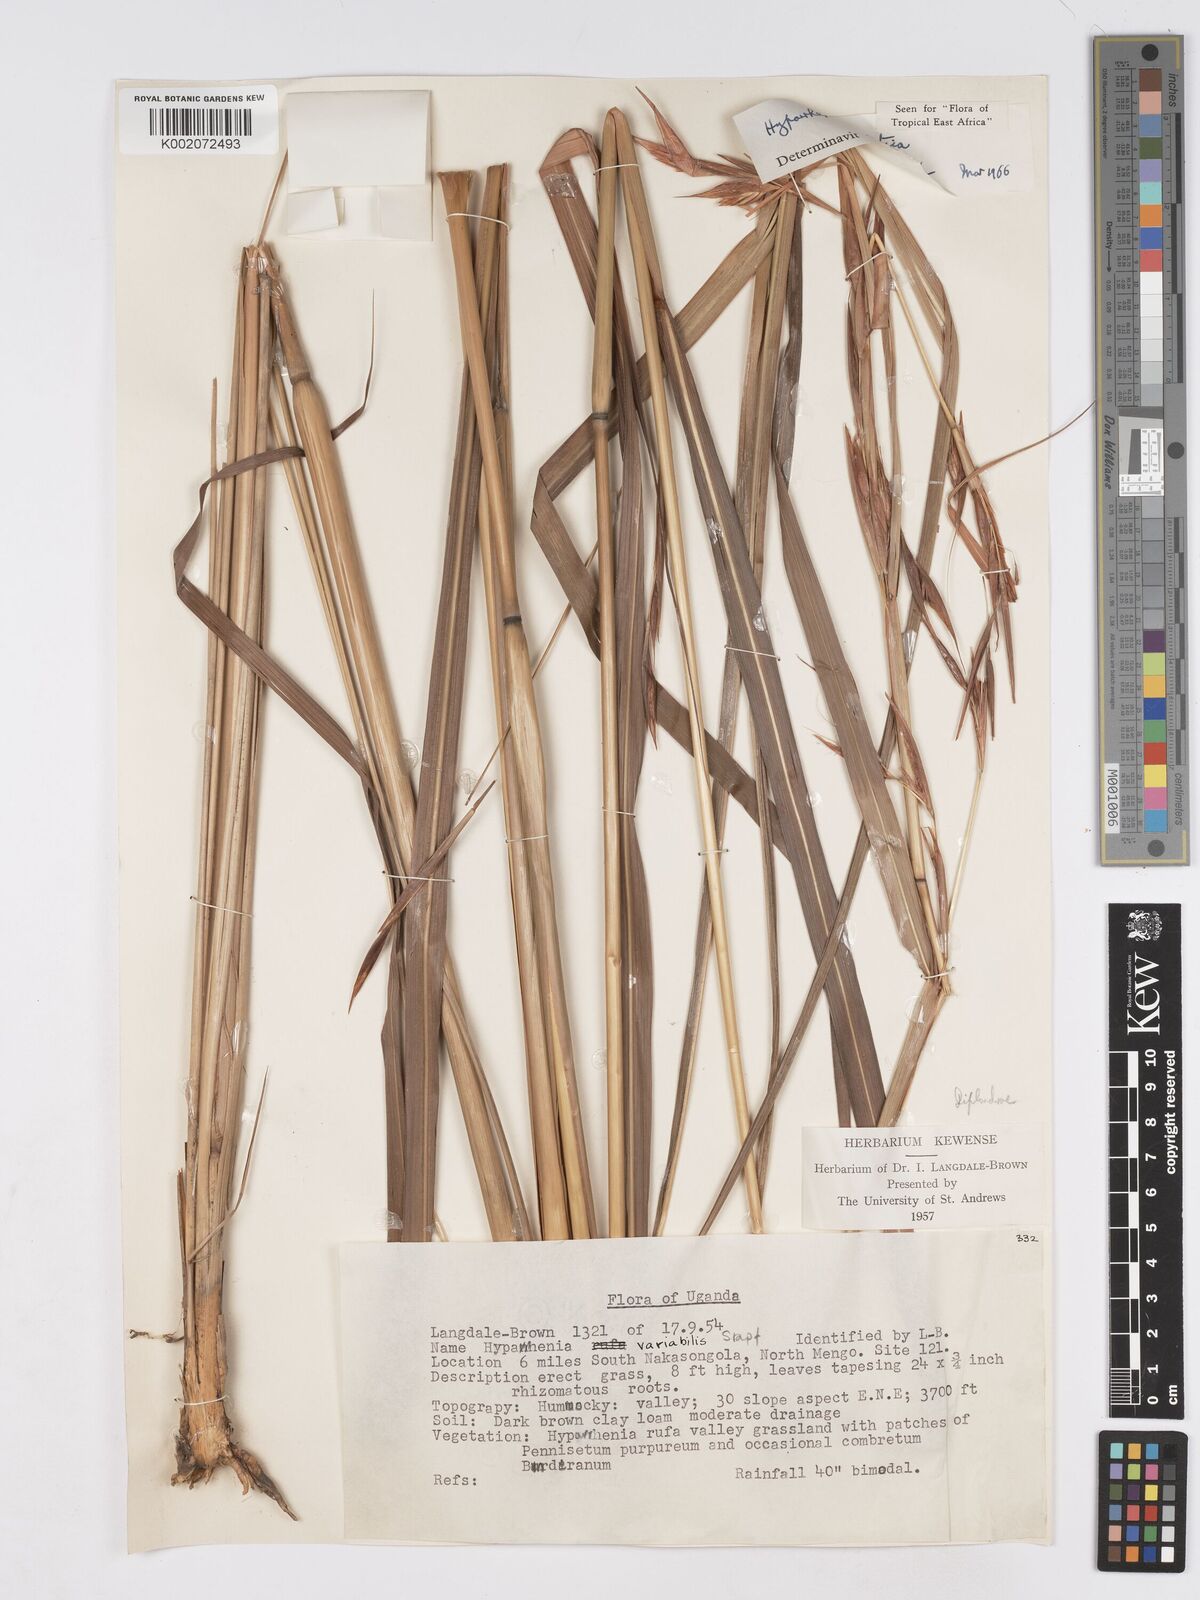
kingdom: Plantae
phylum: Tracheophyta
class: Liliopsida
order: Poales
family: Poaceae
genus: Hyparrhenia
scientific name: Hyparrhenia diplandra
